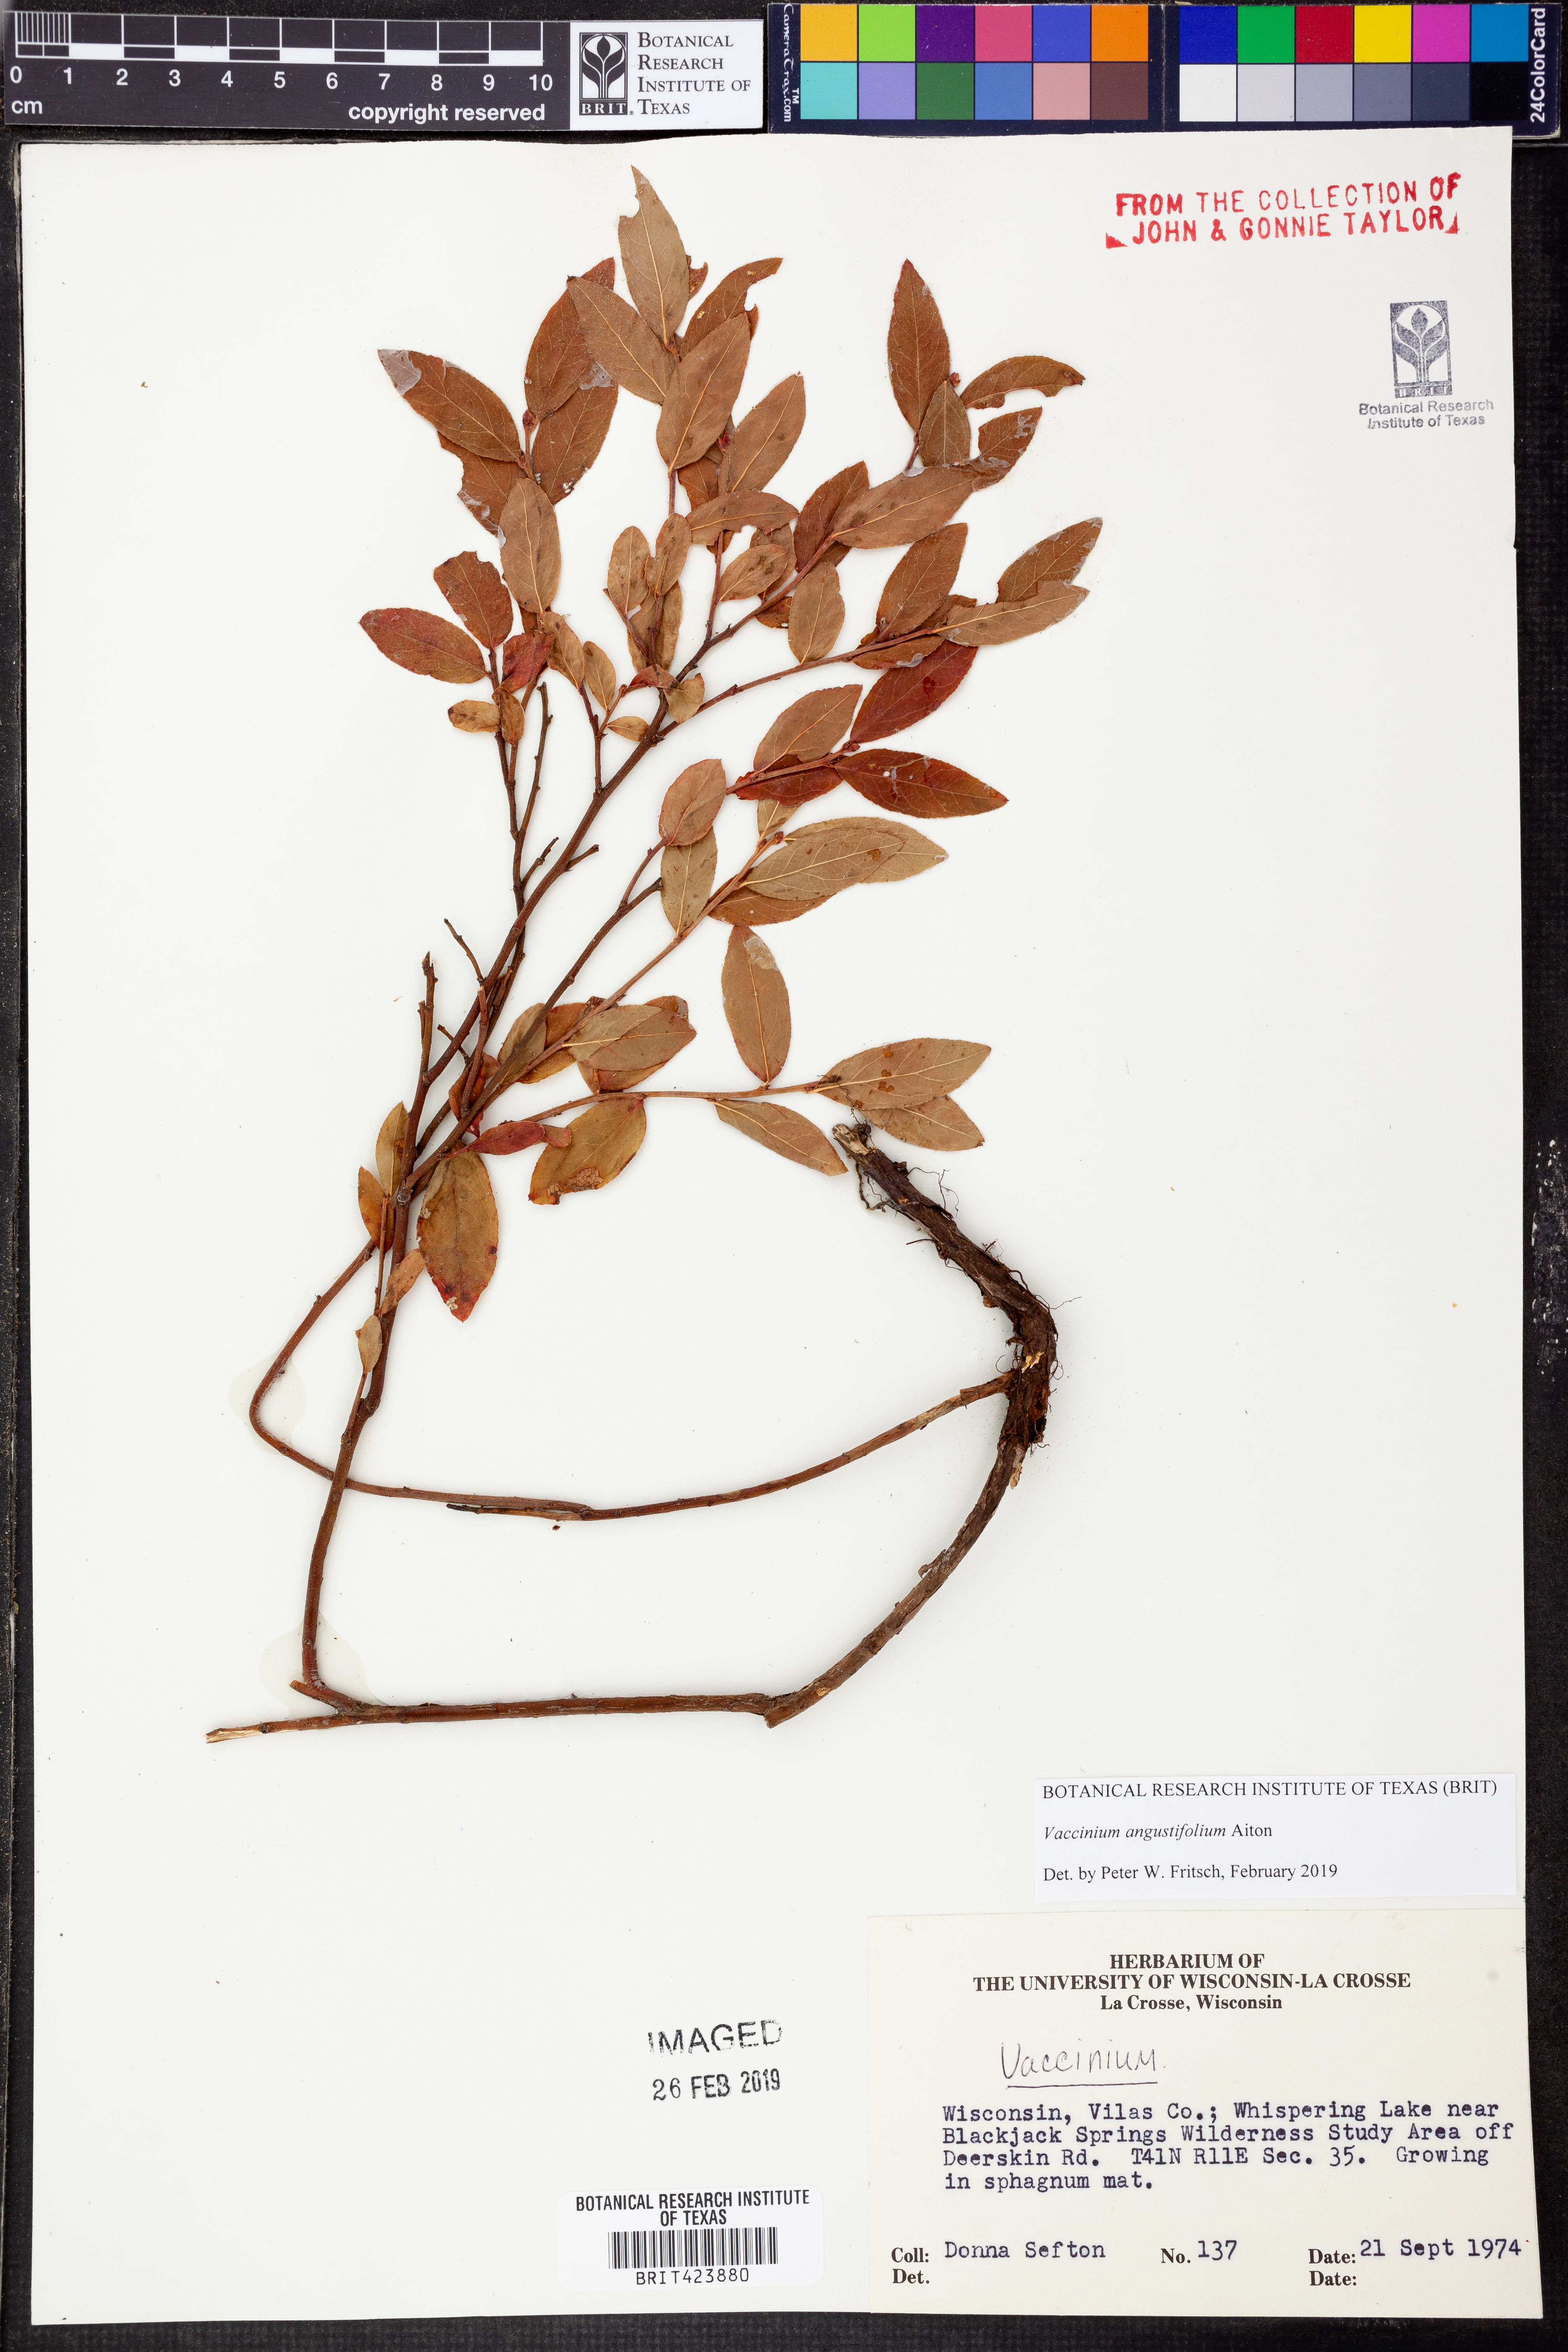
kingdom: Plantae
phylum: Tracheophyta
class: Magnoliopsida
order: Ericales
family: Ericaceae
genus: Vaccinium
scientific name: Vaccinium angustifolium
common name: Early lowbush blueberry
